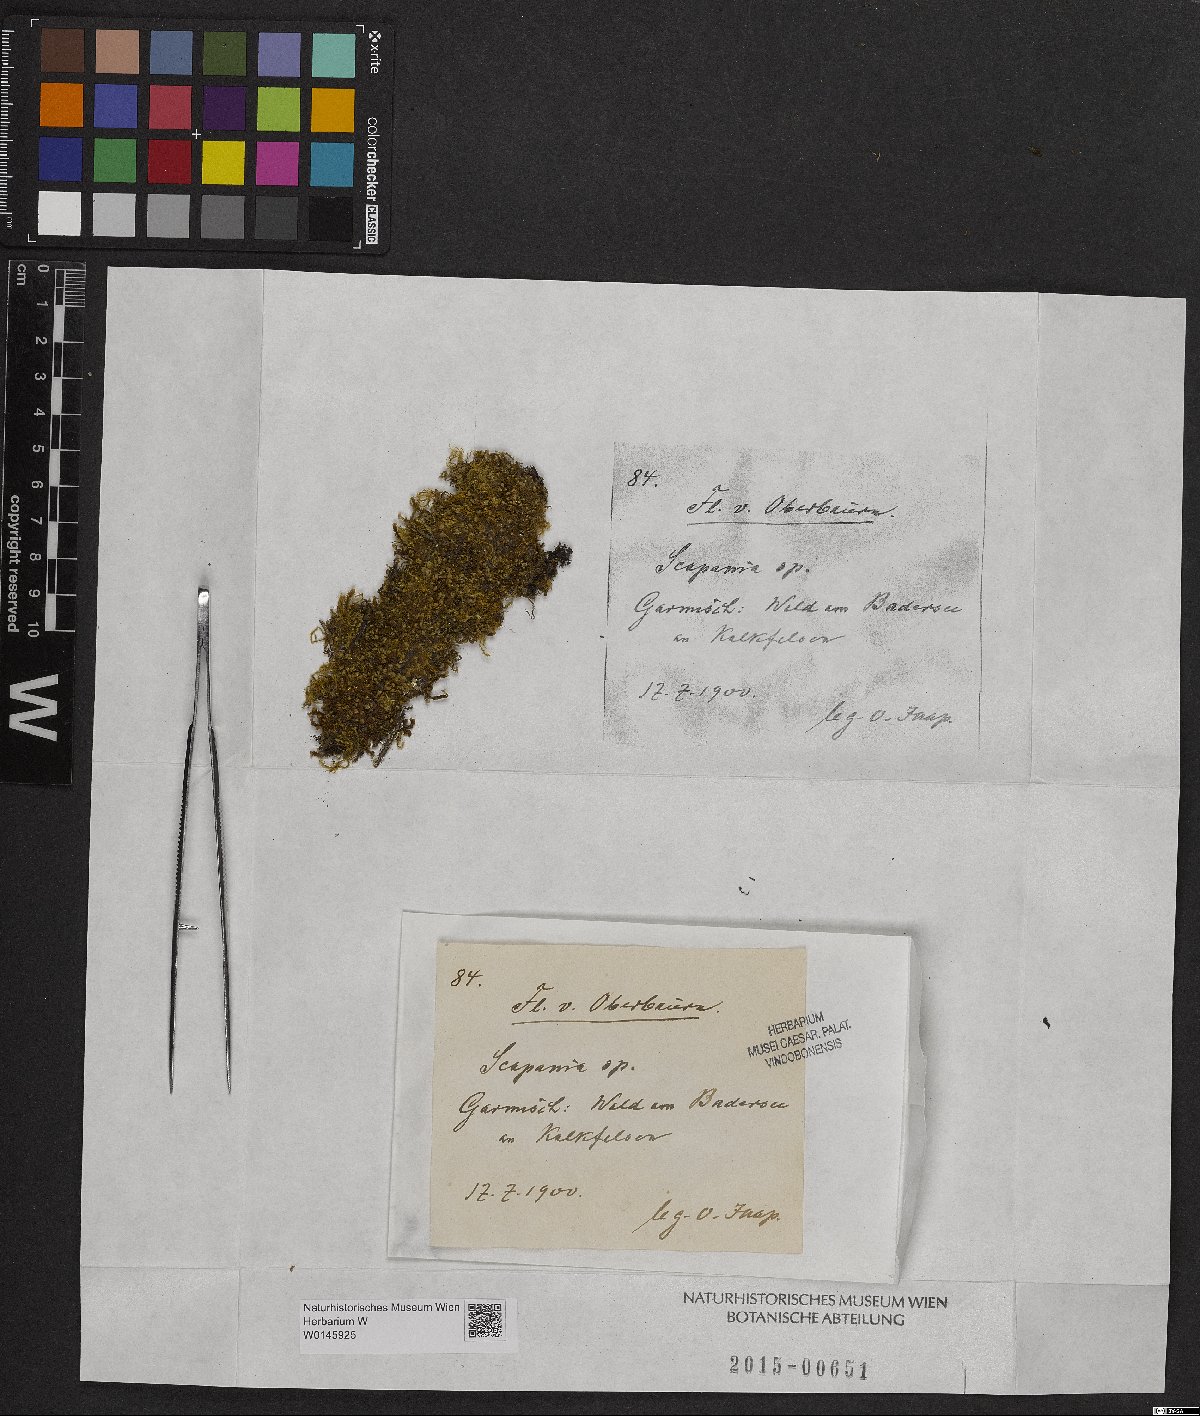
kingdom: Plantae
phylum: Marchantiophyta
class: Jungermanniopsida
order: Jungermanniales
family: Scapaniaceae
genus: Scapania
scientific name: Scapania
